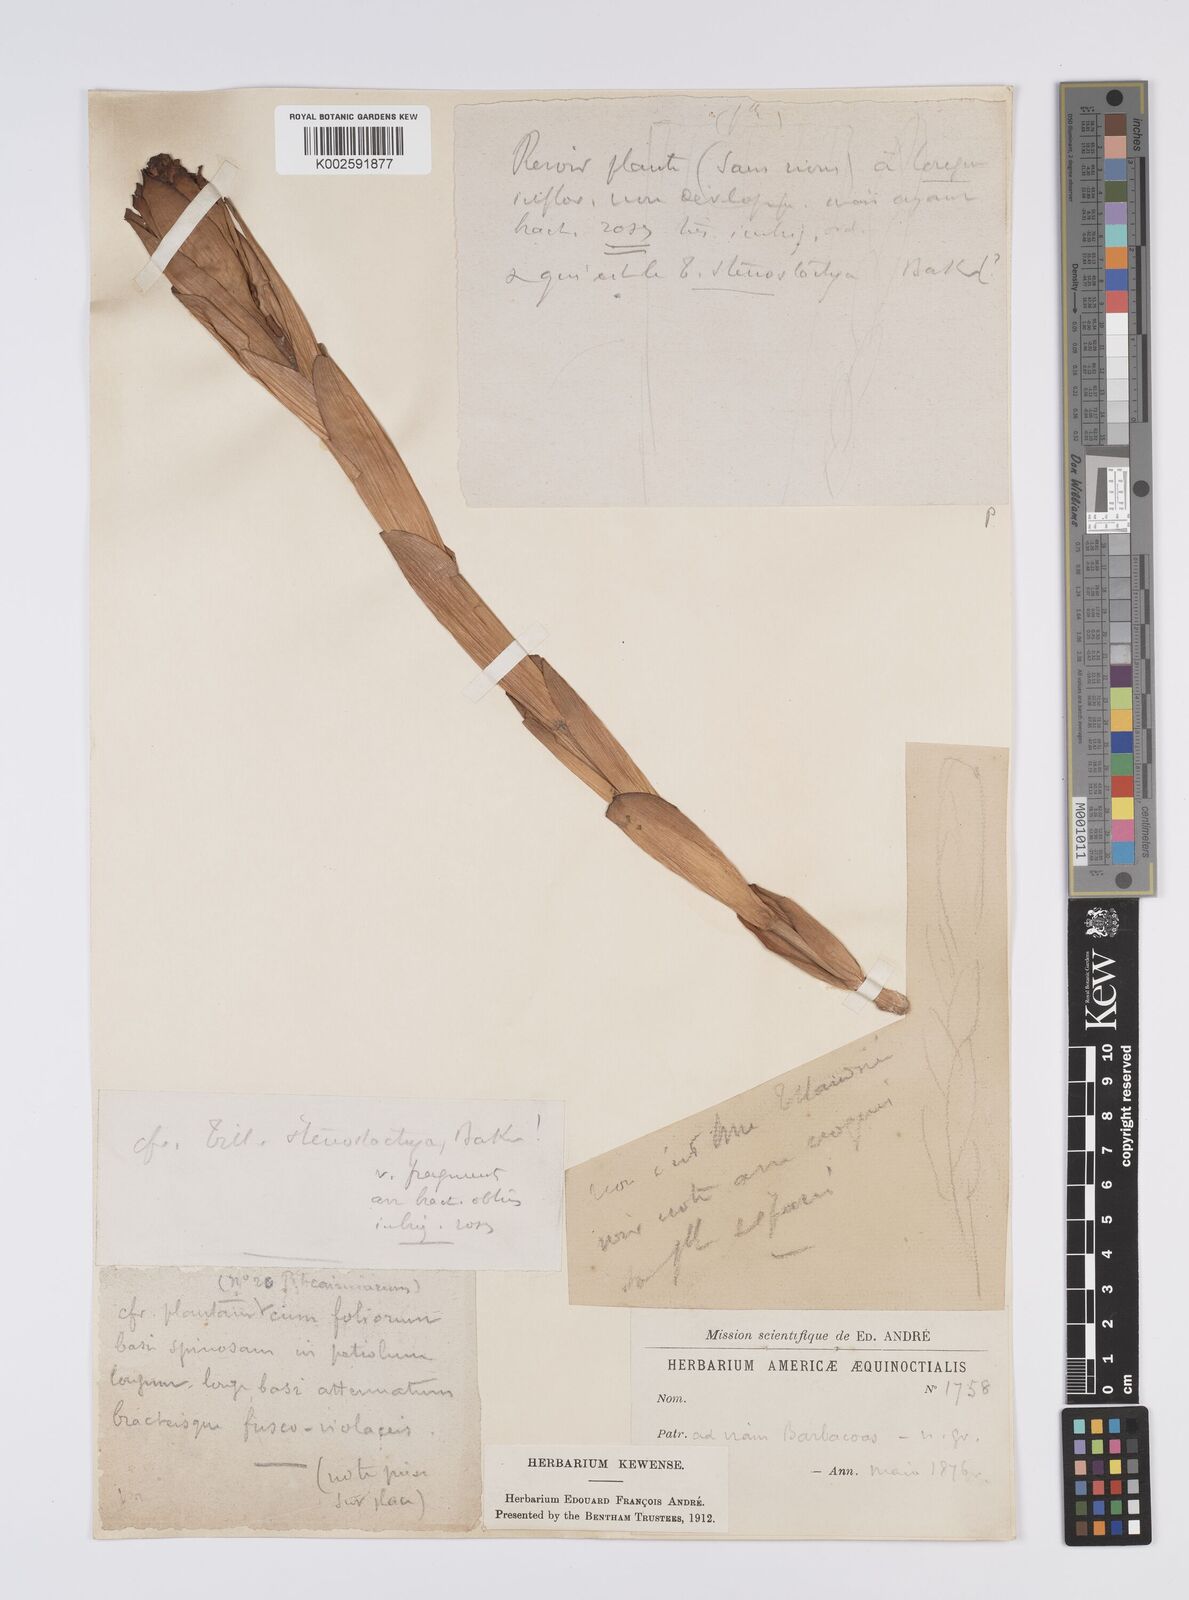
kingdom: Plantae
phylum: Tracheophyta
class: Liliopsida
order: Poales
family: Bromeliaceae
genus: Aechmea
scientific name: Aechmea
